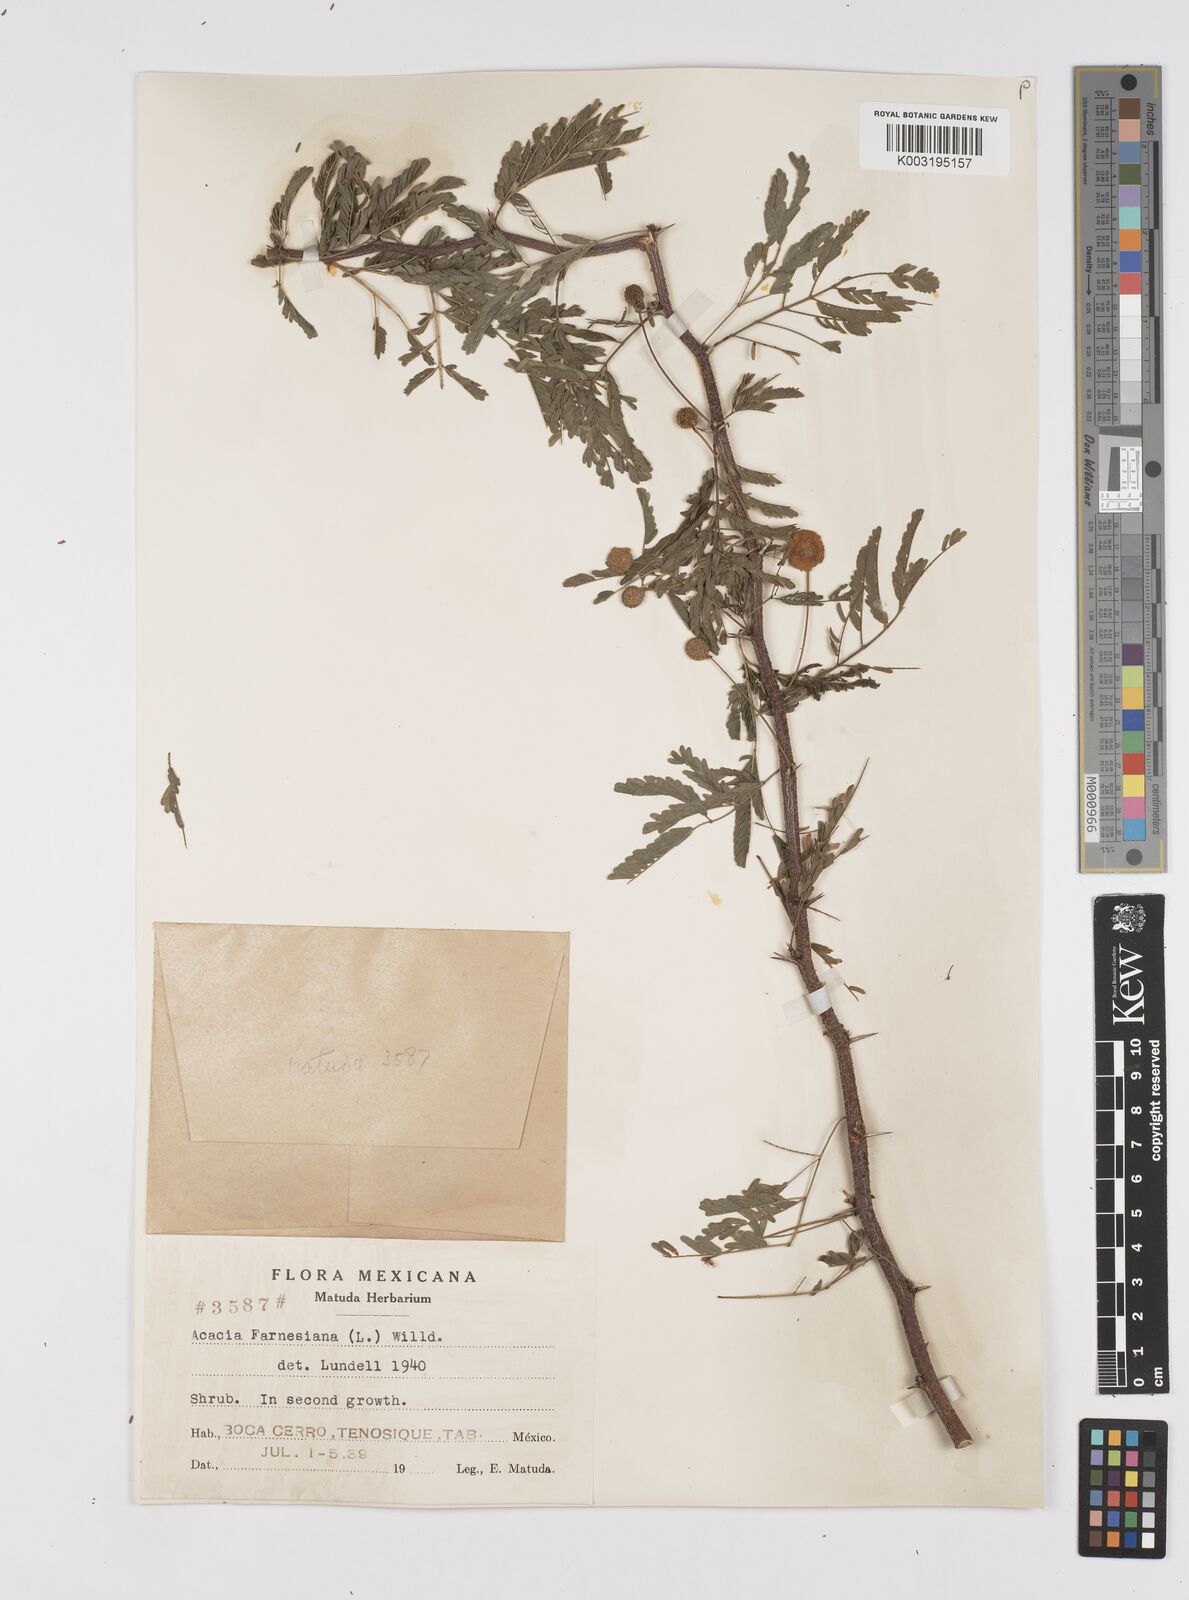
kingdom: Plantae
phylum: Tracheophyta
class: Magnoliopsida
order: Fabales
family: Fabaceae
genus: Vachellia
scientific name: Vachellia farnesiana
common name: Sweet acacia
